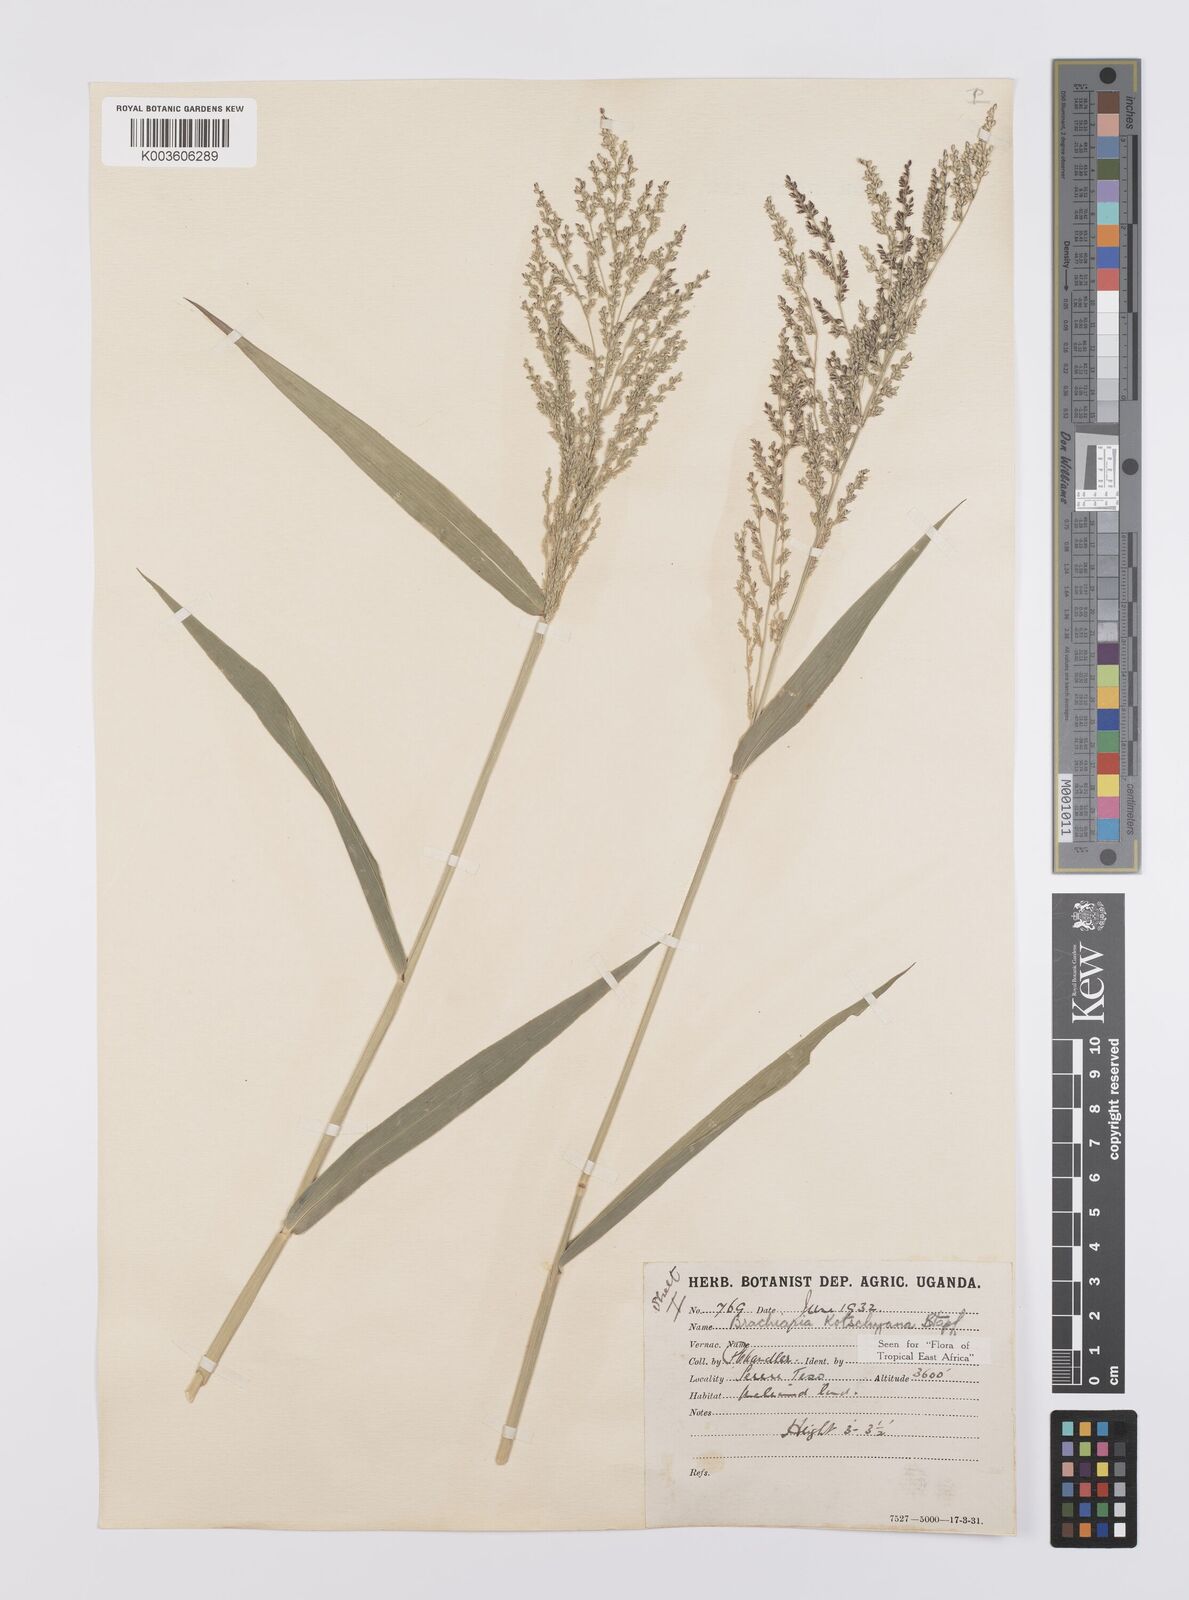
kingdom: Plantae
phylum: Tracheophyta
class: Liliopsida
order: Poales
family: Poaceae
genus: Urochloa
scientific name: Urochloa comata
